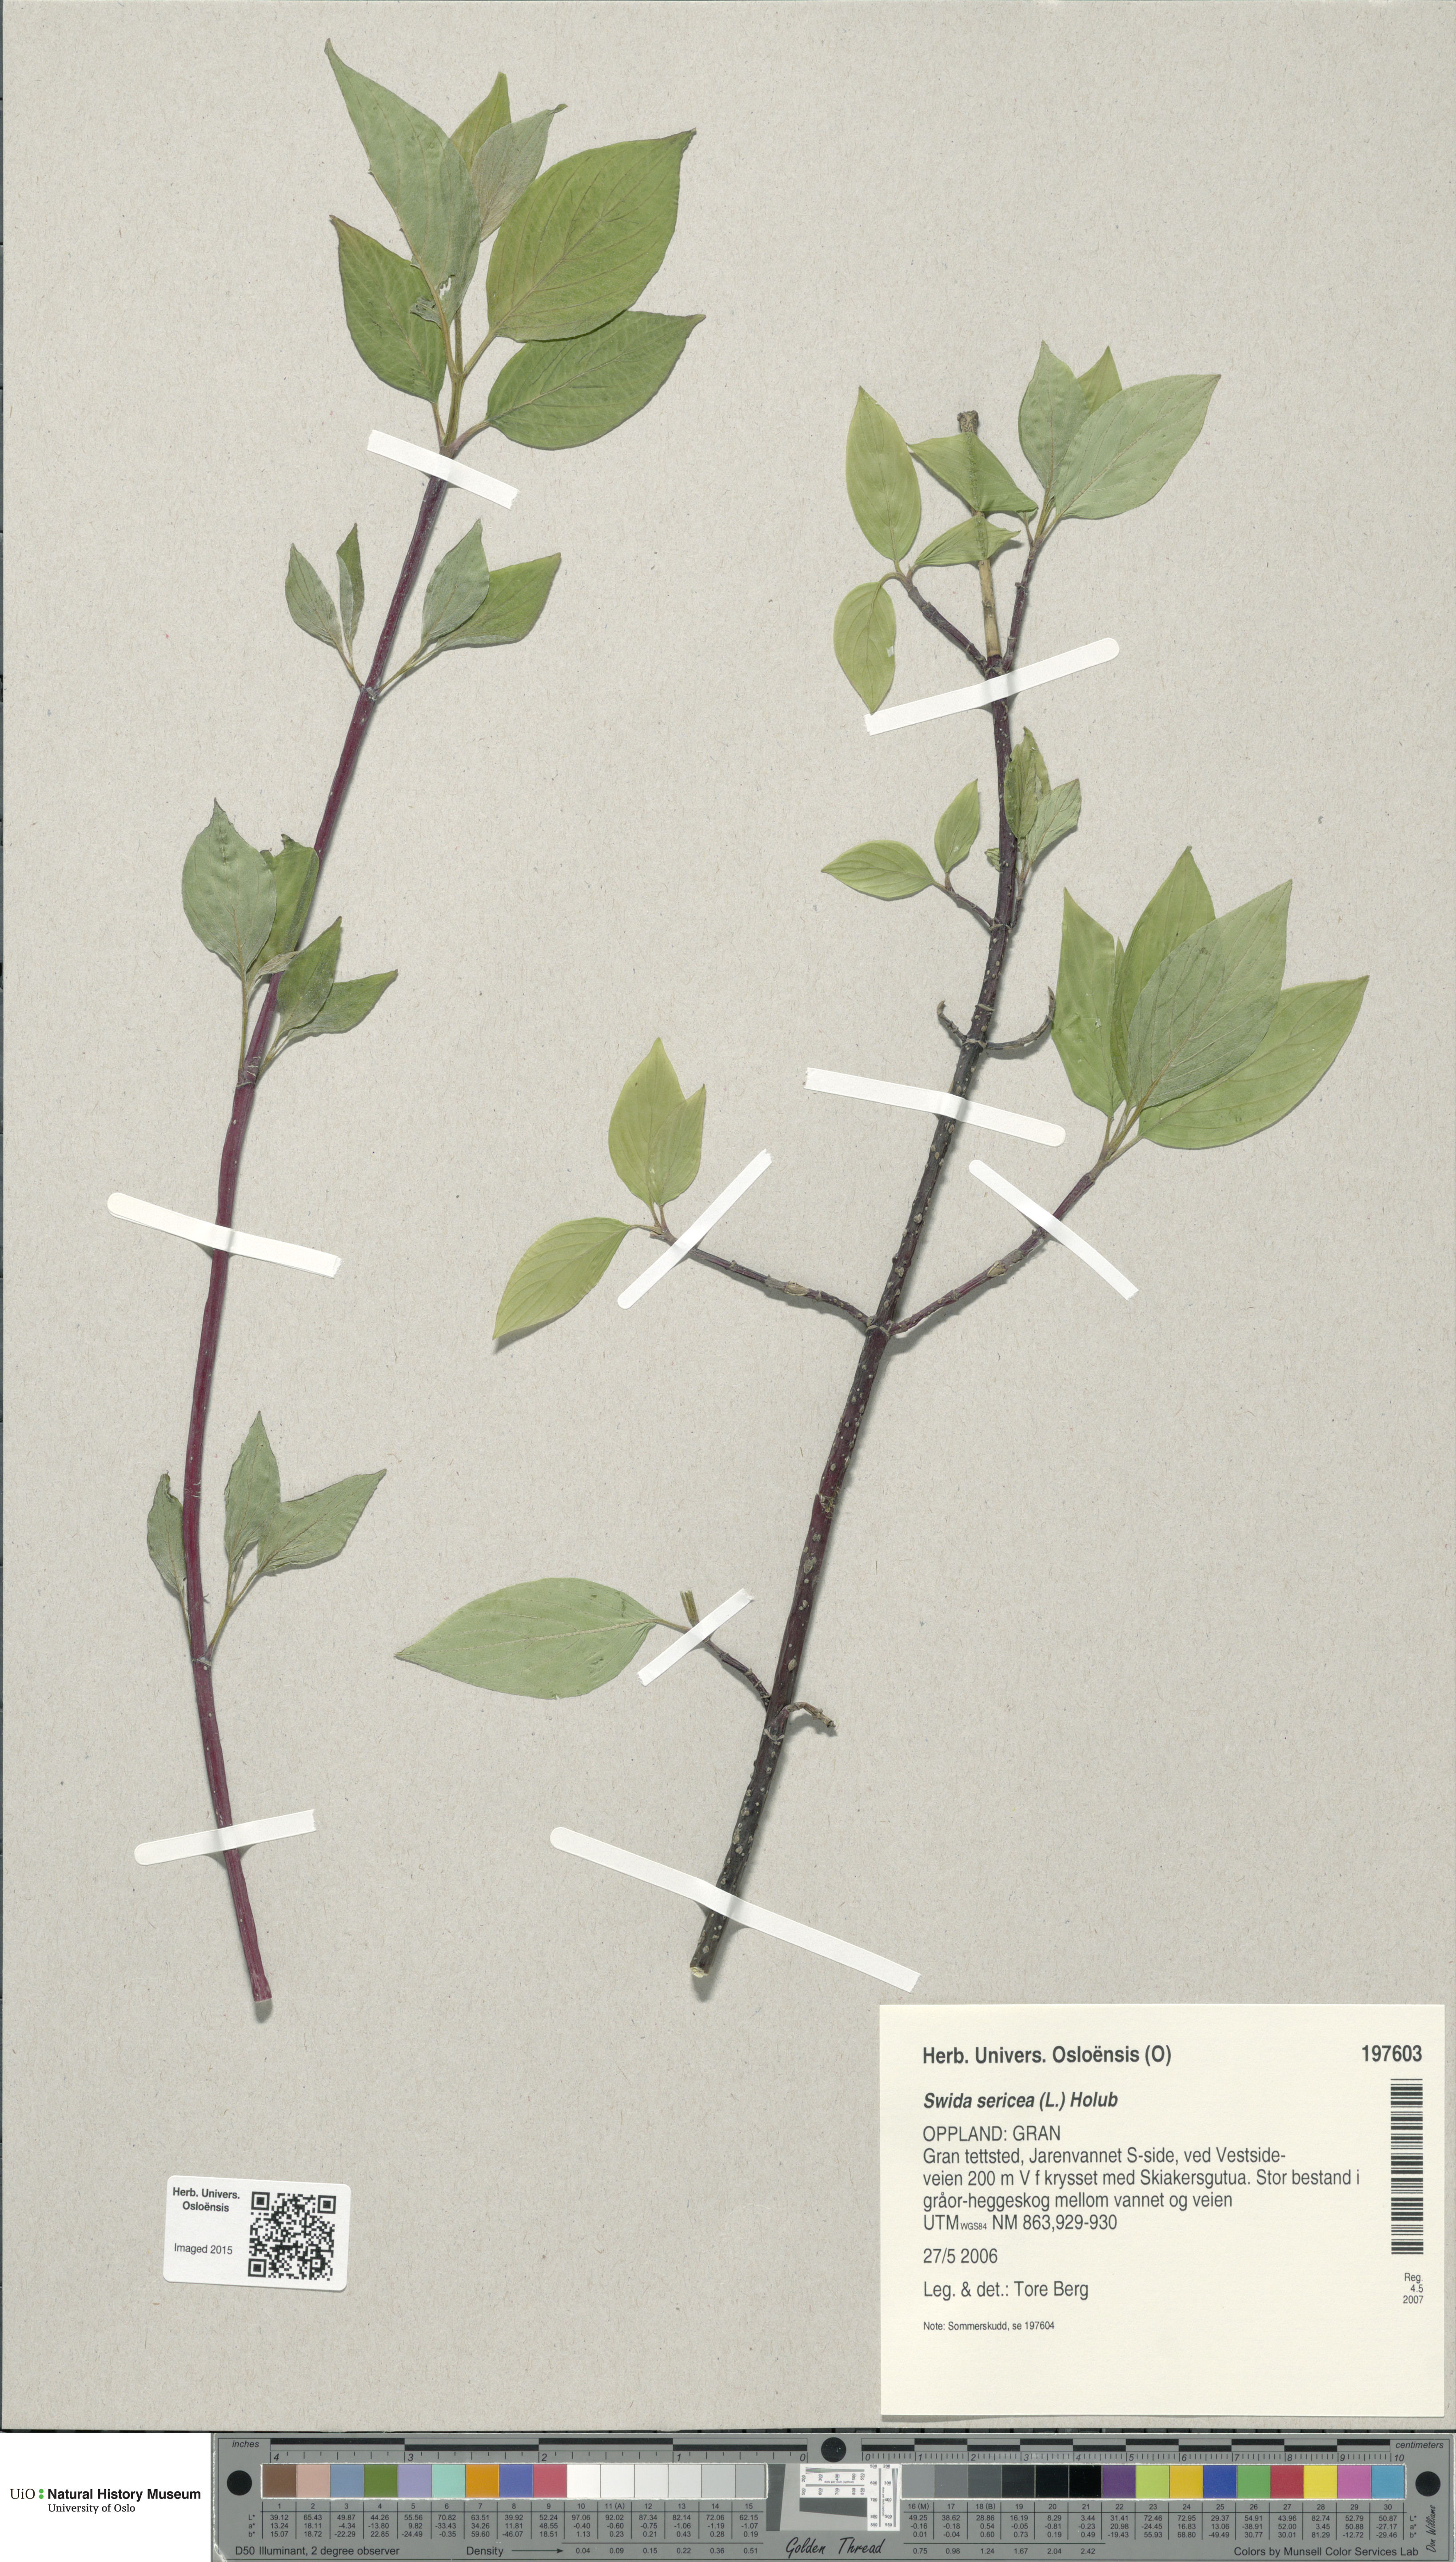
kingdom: Plantae
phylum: Tracheophyta
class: Magnoliopsida
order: Cornales
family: Cornaceae
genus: Cornus
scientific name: Cornus sericea
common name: Red-osier dogwood
